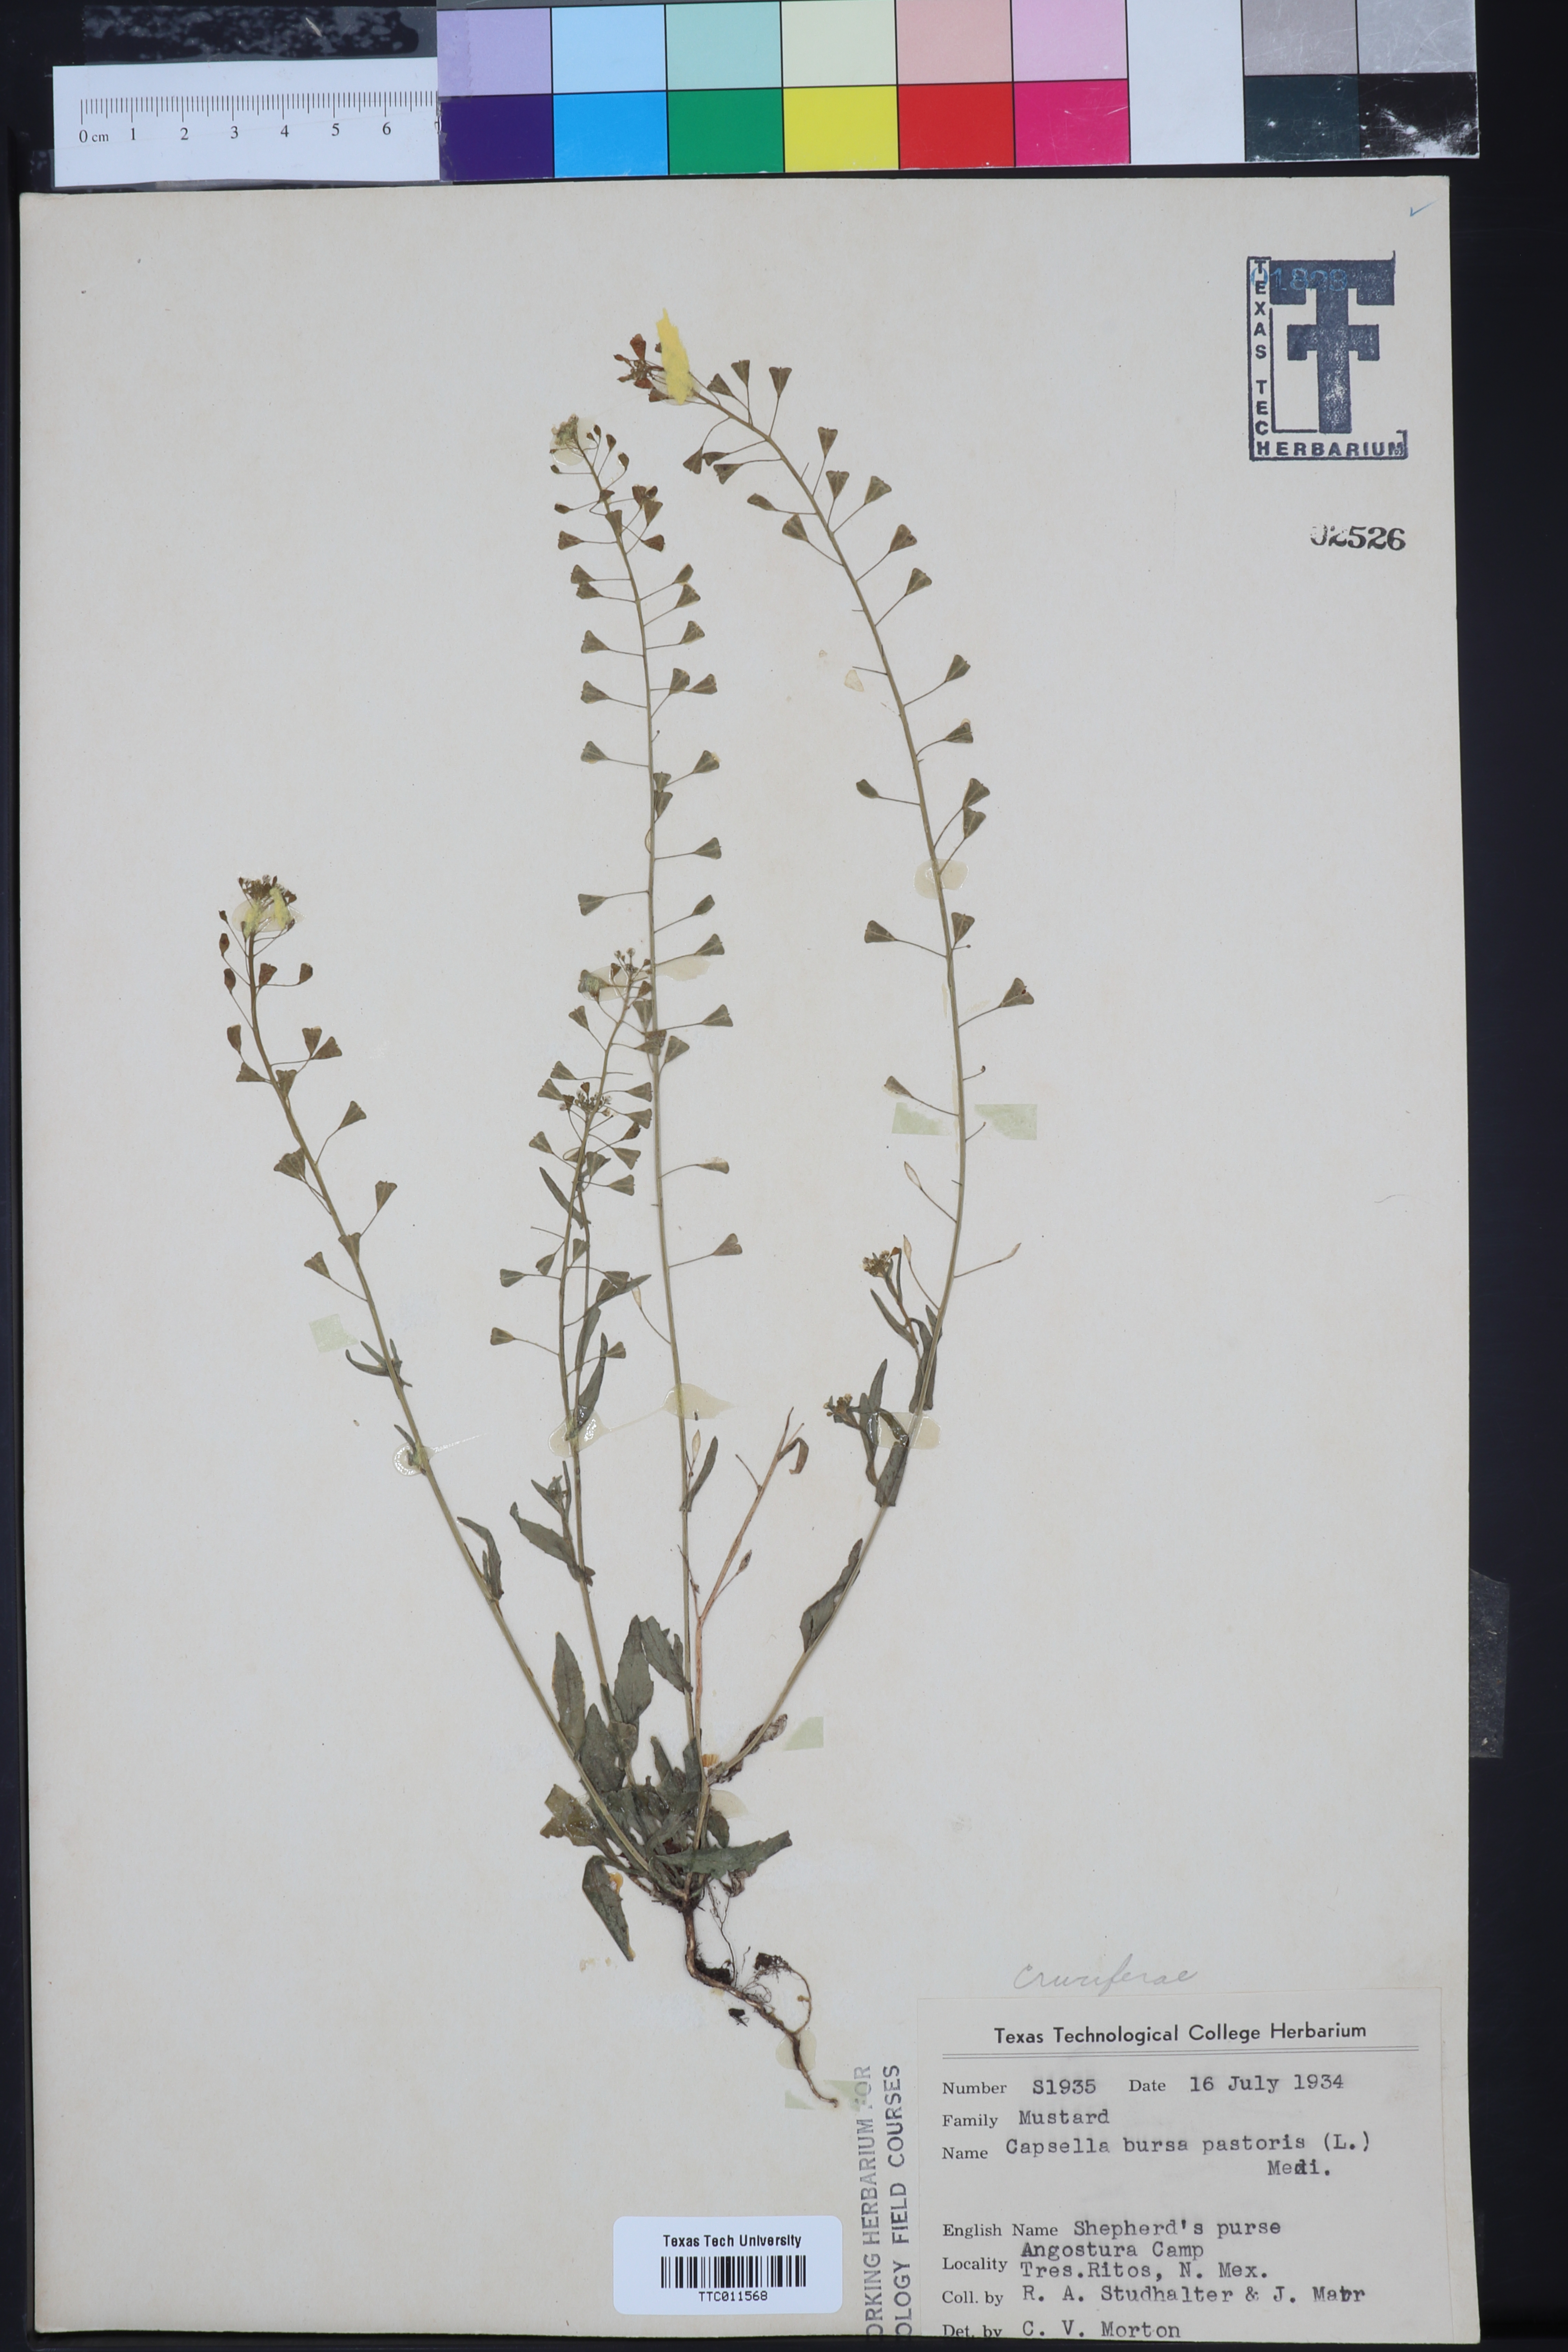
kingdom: Plantae
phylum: Tracheophyta
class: Magnoliopsida
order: Brassicales
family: Brassicaceae
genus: Capsella
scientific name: Capsella bursa-pastoris
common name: Shepherd's purse
